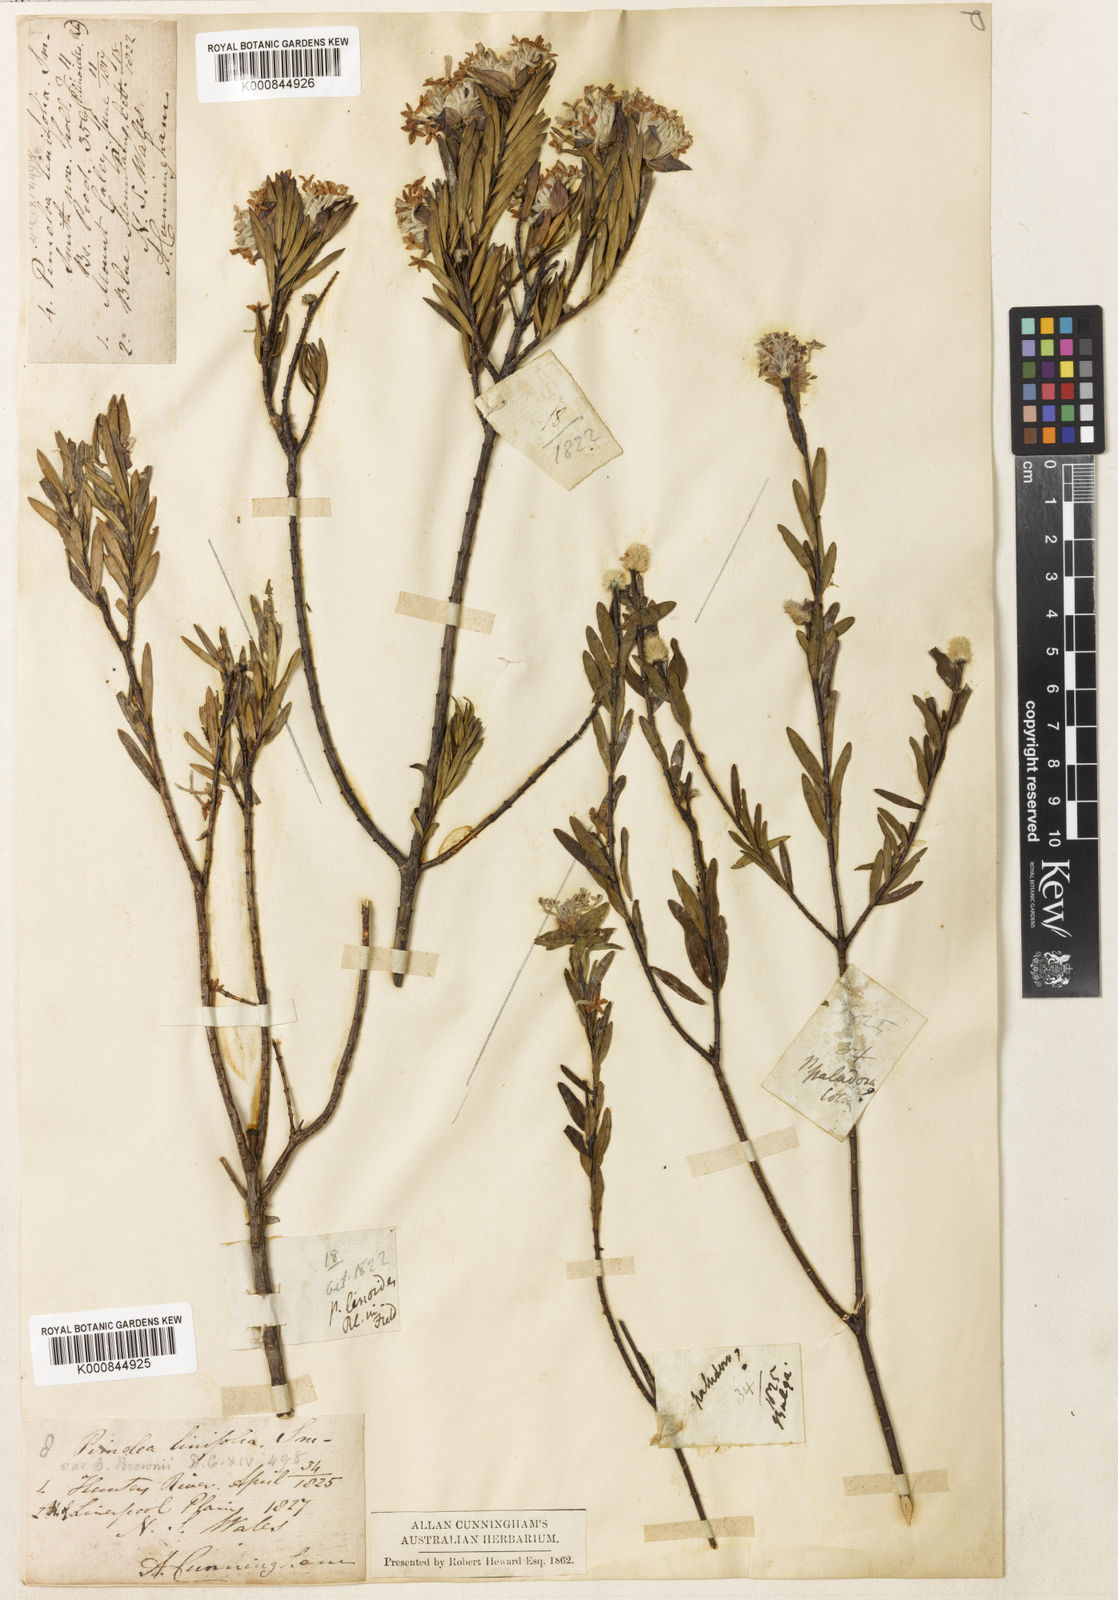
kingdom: Plantae
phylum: Tracheophyta
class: Magnoliopsida
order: Malvales
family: Thymelaeaceae
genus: Pimelea
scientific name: Pimelea linifolia
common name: Queen-of-the-bush
